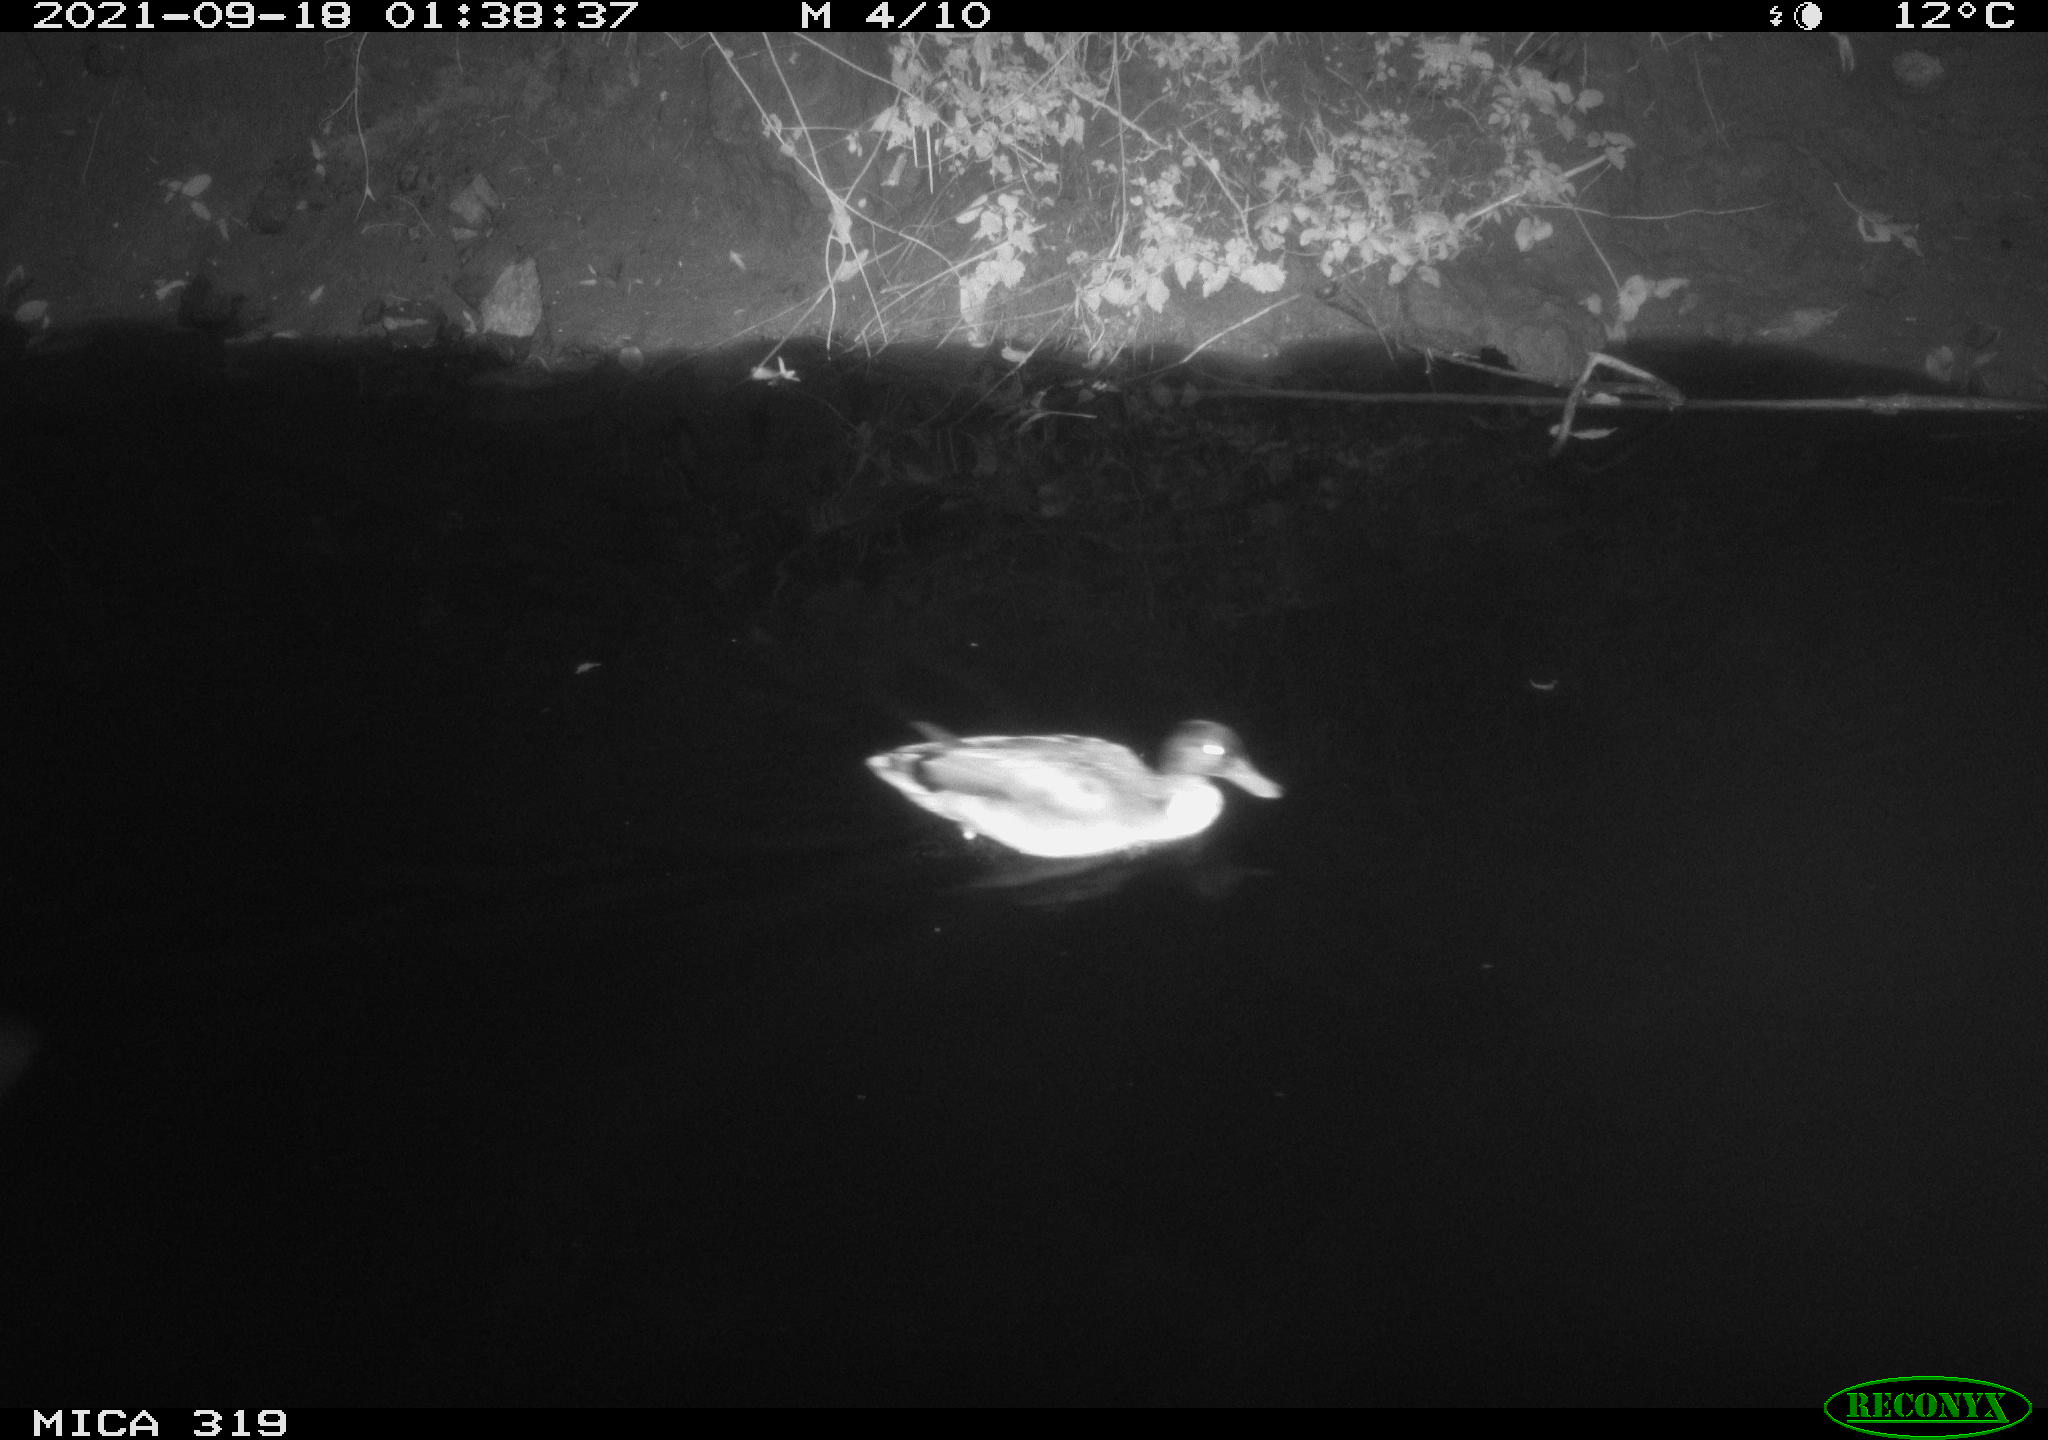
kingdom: Animalia
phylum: Chordata
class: Aves
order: Anseriformes
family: Anatidae
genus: Anas
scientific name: Anas platyrhynchos
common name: Mallard
